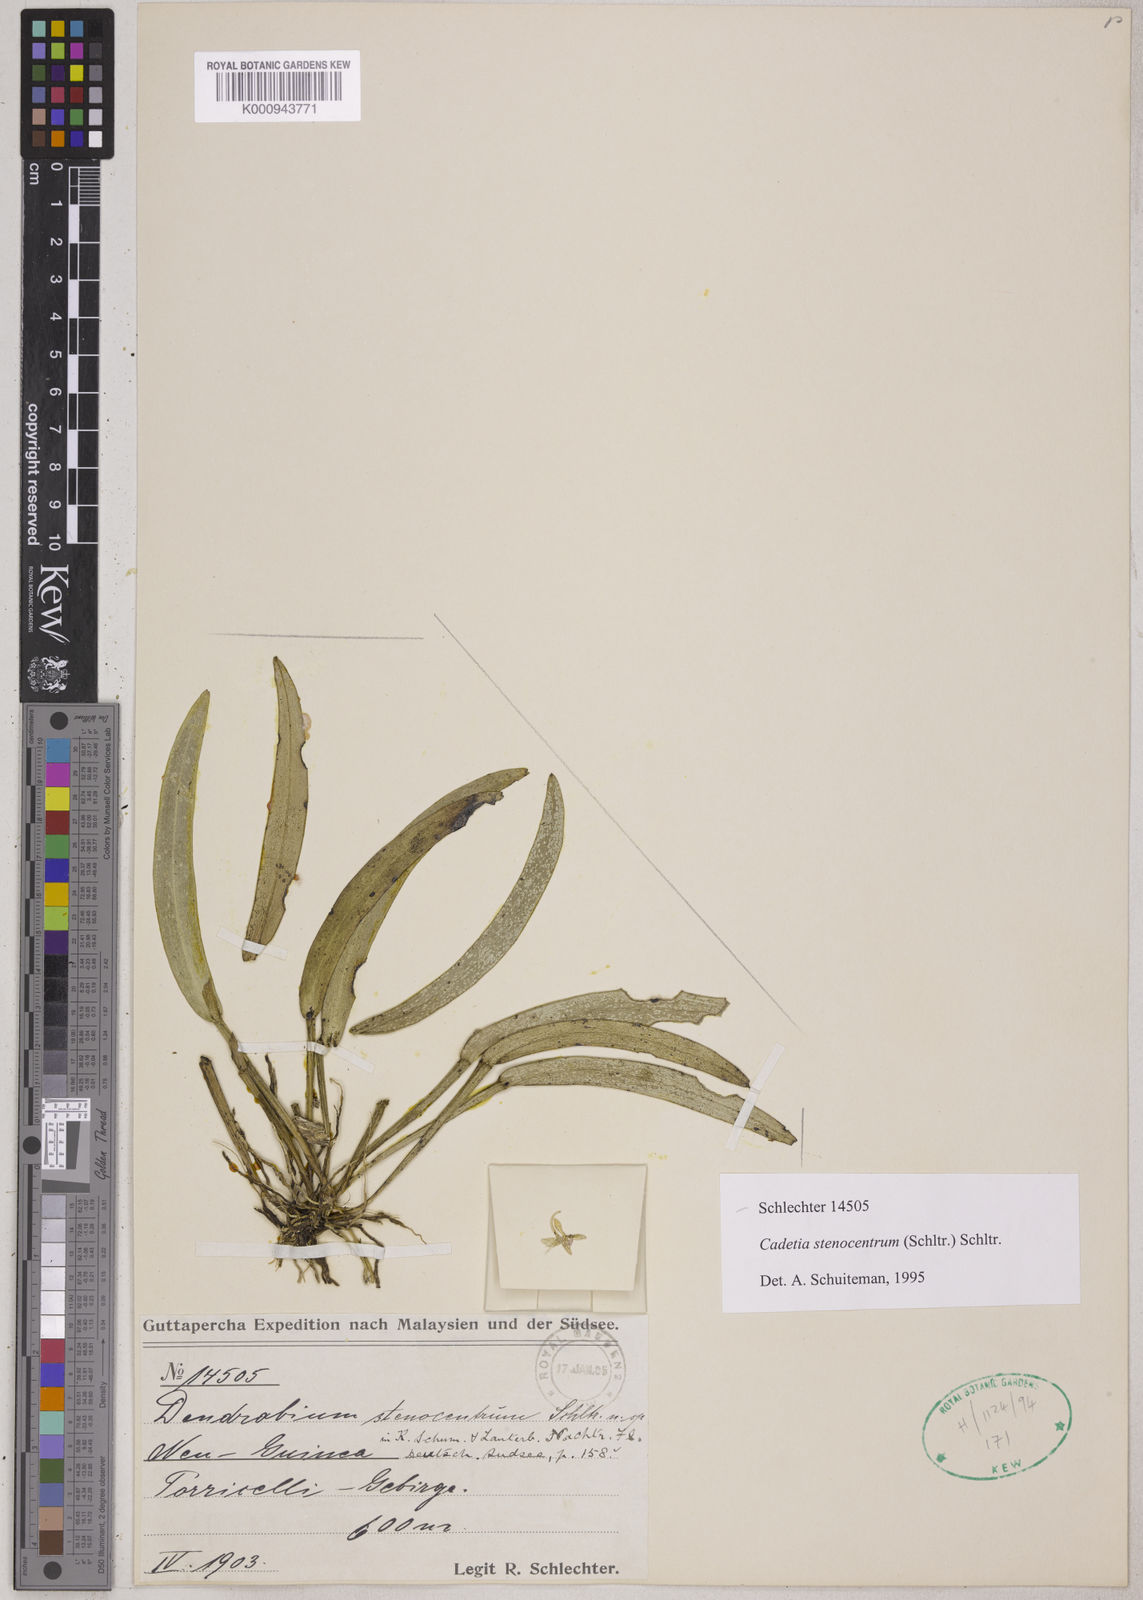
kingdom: Plantae
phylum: Tracheophyta
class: Liliopsida
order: Asparagales
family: Orchidaceae
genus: Dendrobium
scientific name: Dendrobium stenocentrum
